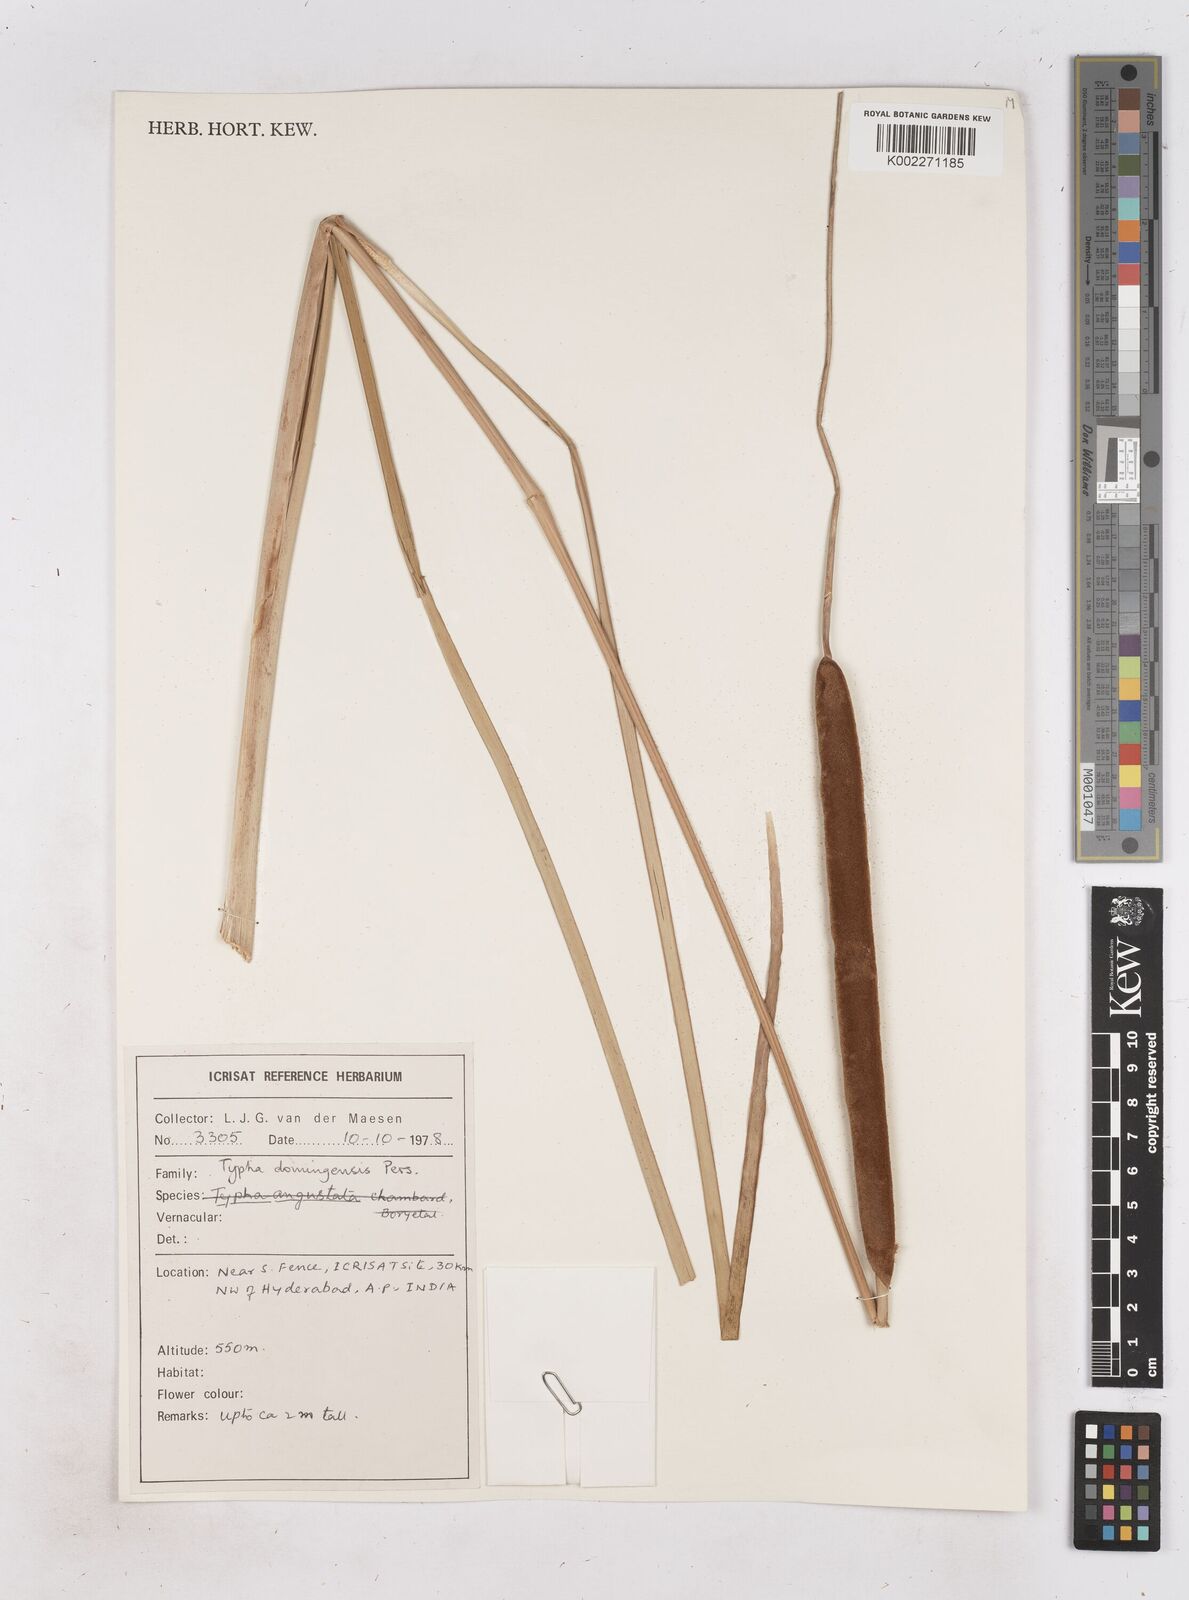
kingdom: Plantae
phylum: Tracheophyta
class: Liliopsida
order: Poales
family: Typhaceae
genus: Typha
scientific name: Typha domingensis
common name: Southern cattail
